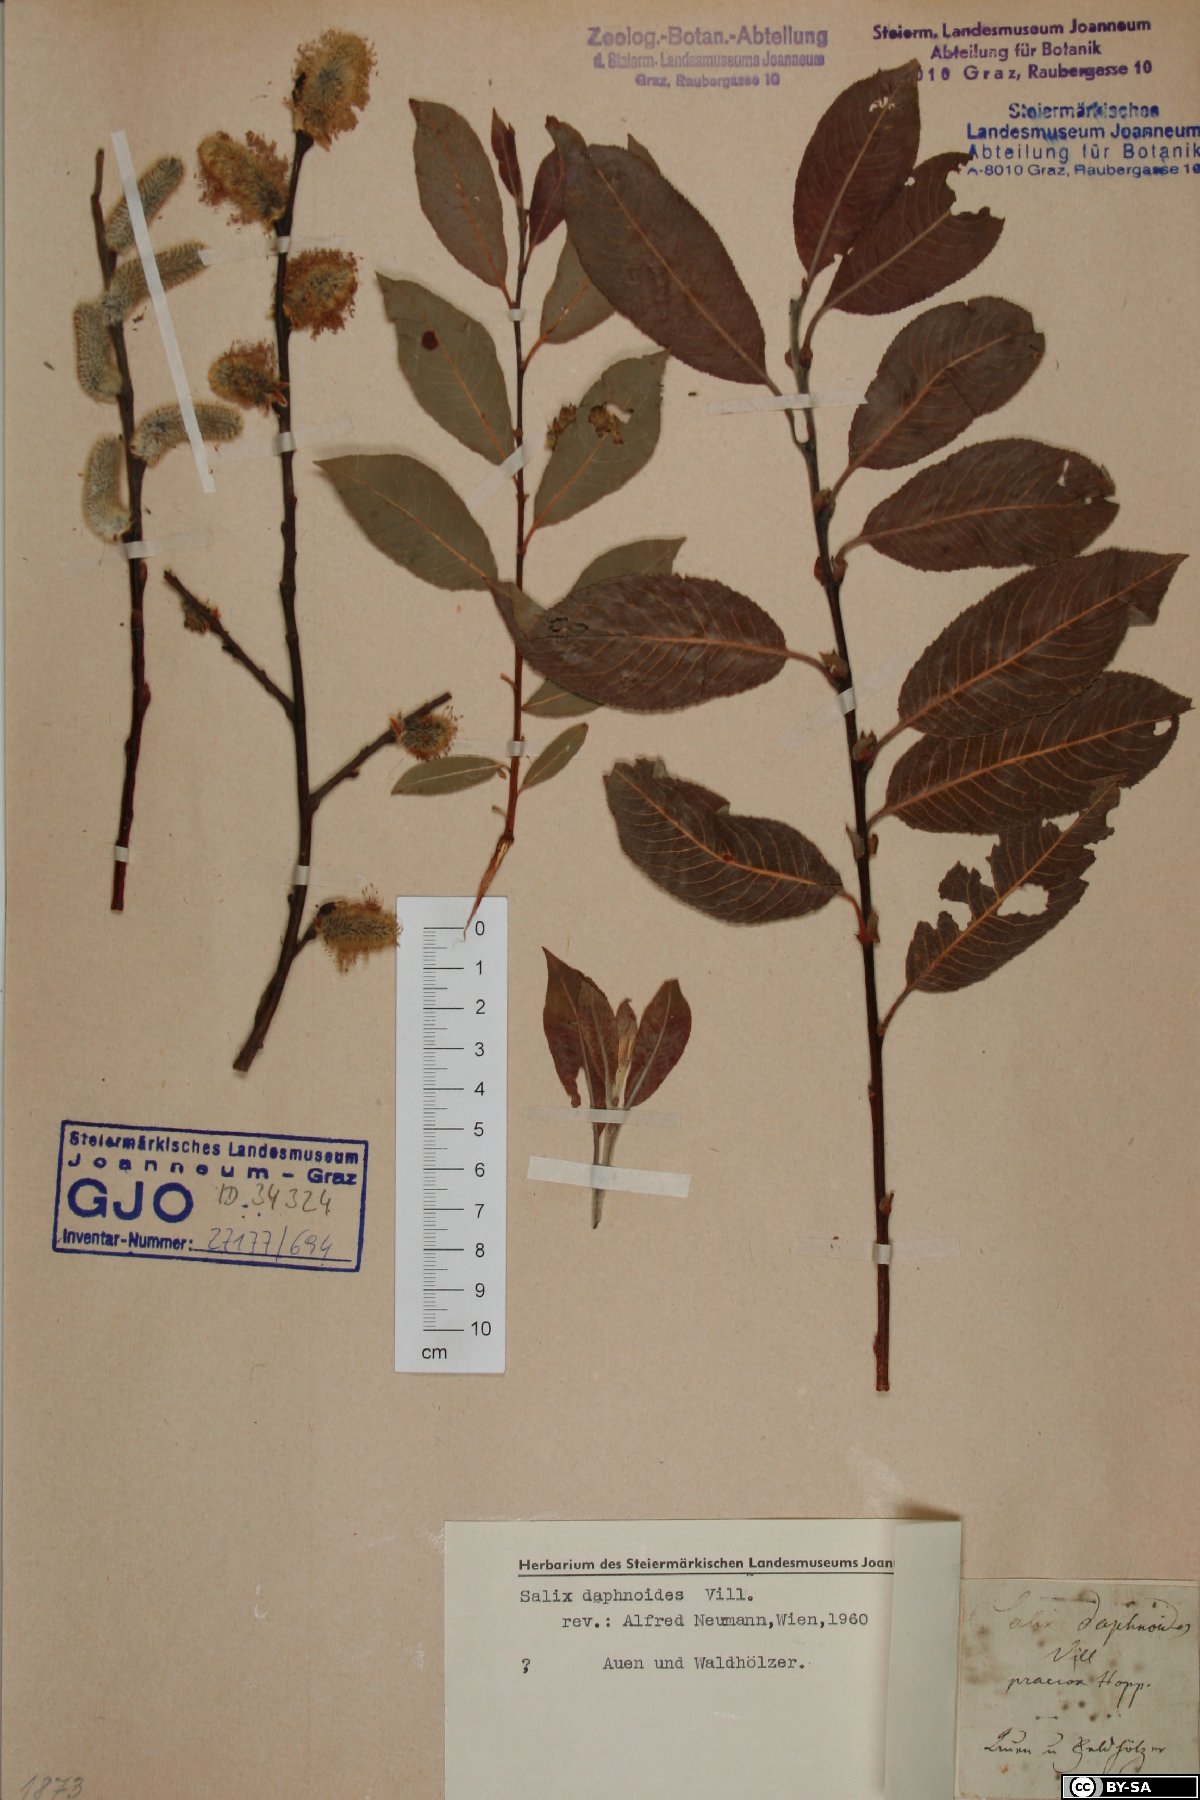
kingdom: Plantae
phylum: Tracheophyta
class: Magnoliopsida
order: Malpighiales
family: Salicaceae
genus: Salix
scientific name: Salix daphnoides
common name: European violet-willow
